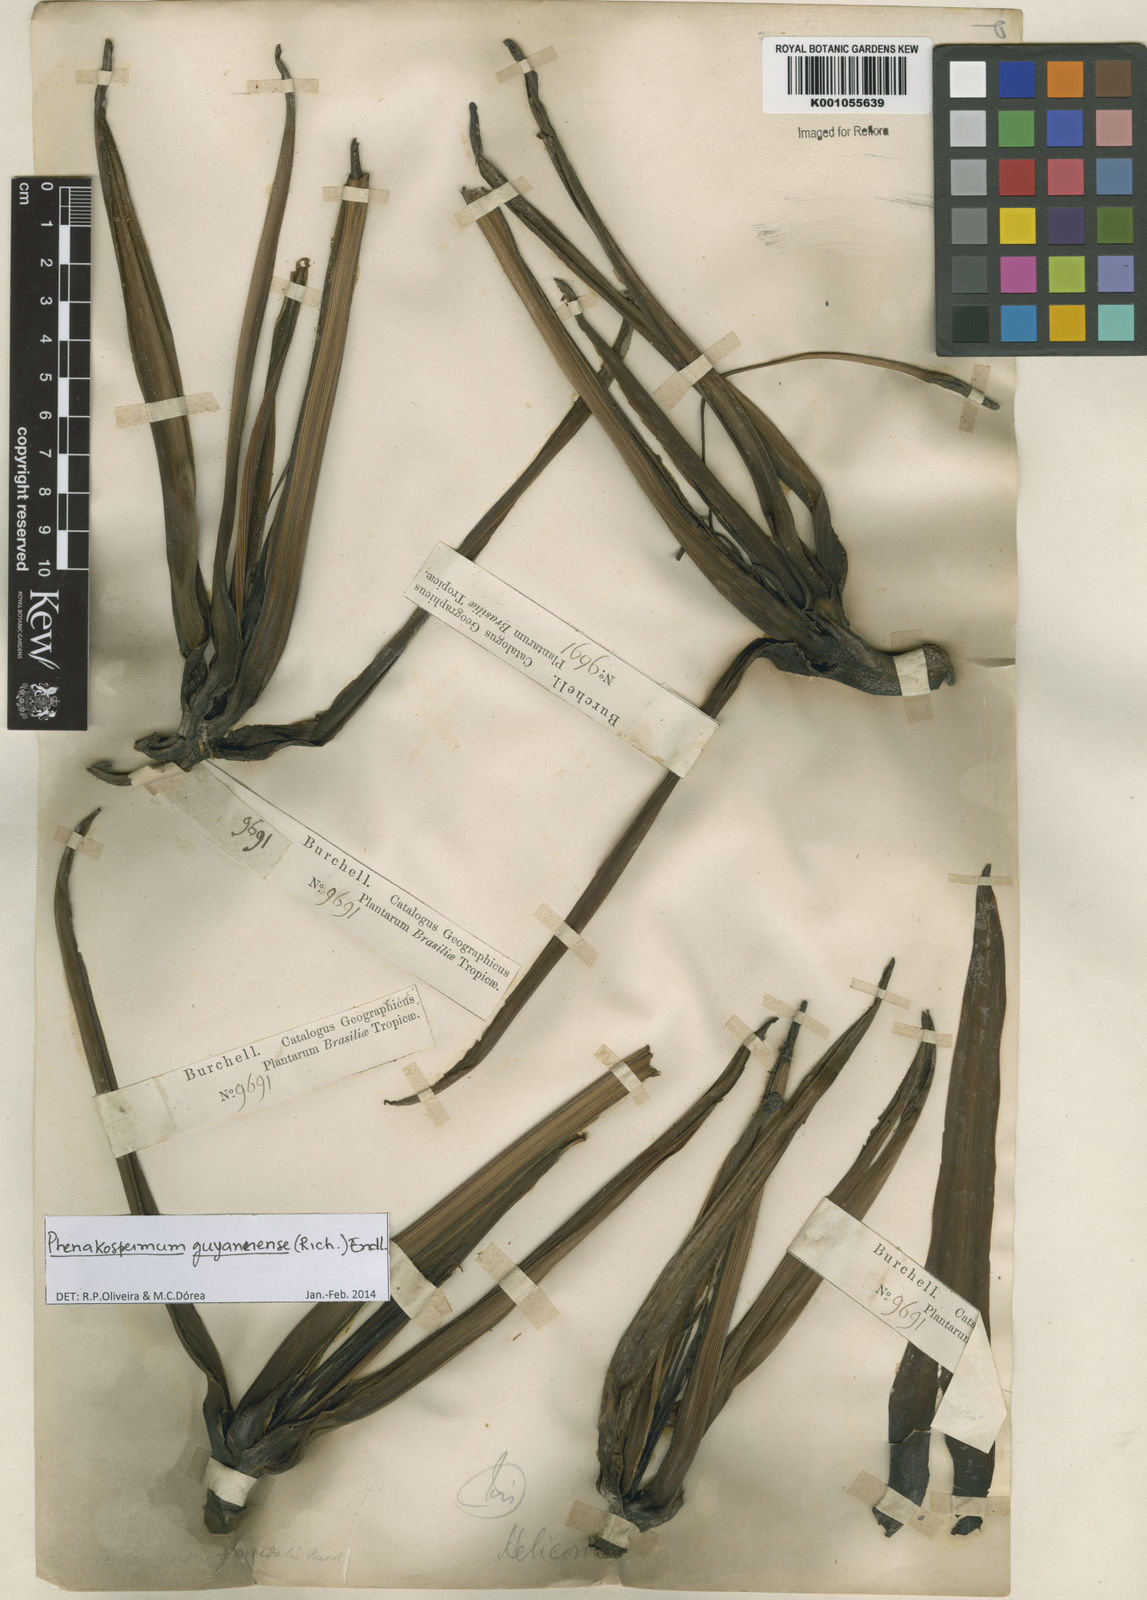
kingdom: Plantae
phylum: Tracheophyta
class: Liliopsida
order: Zingiberales
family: Strelitziaceae
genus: Phenakospermum
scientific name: Phenakospermum
